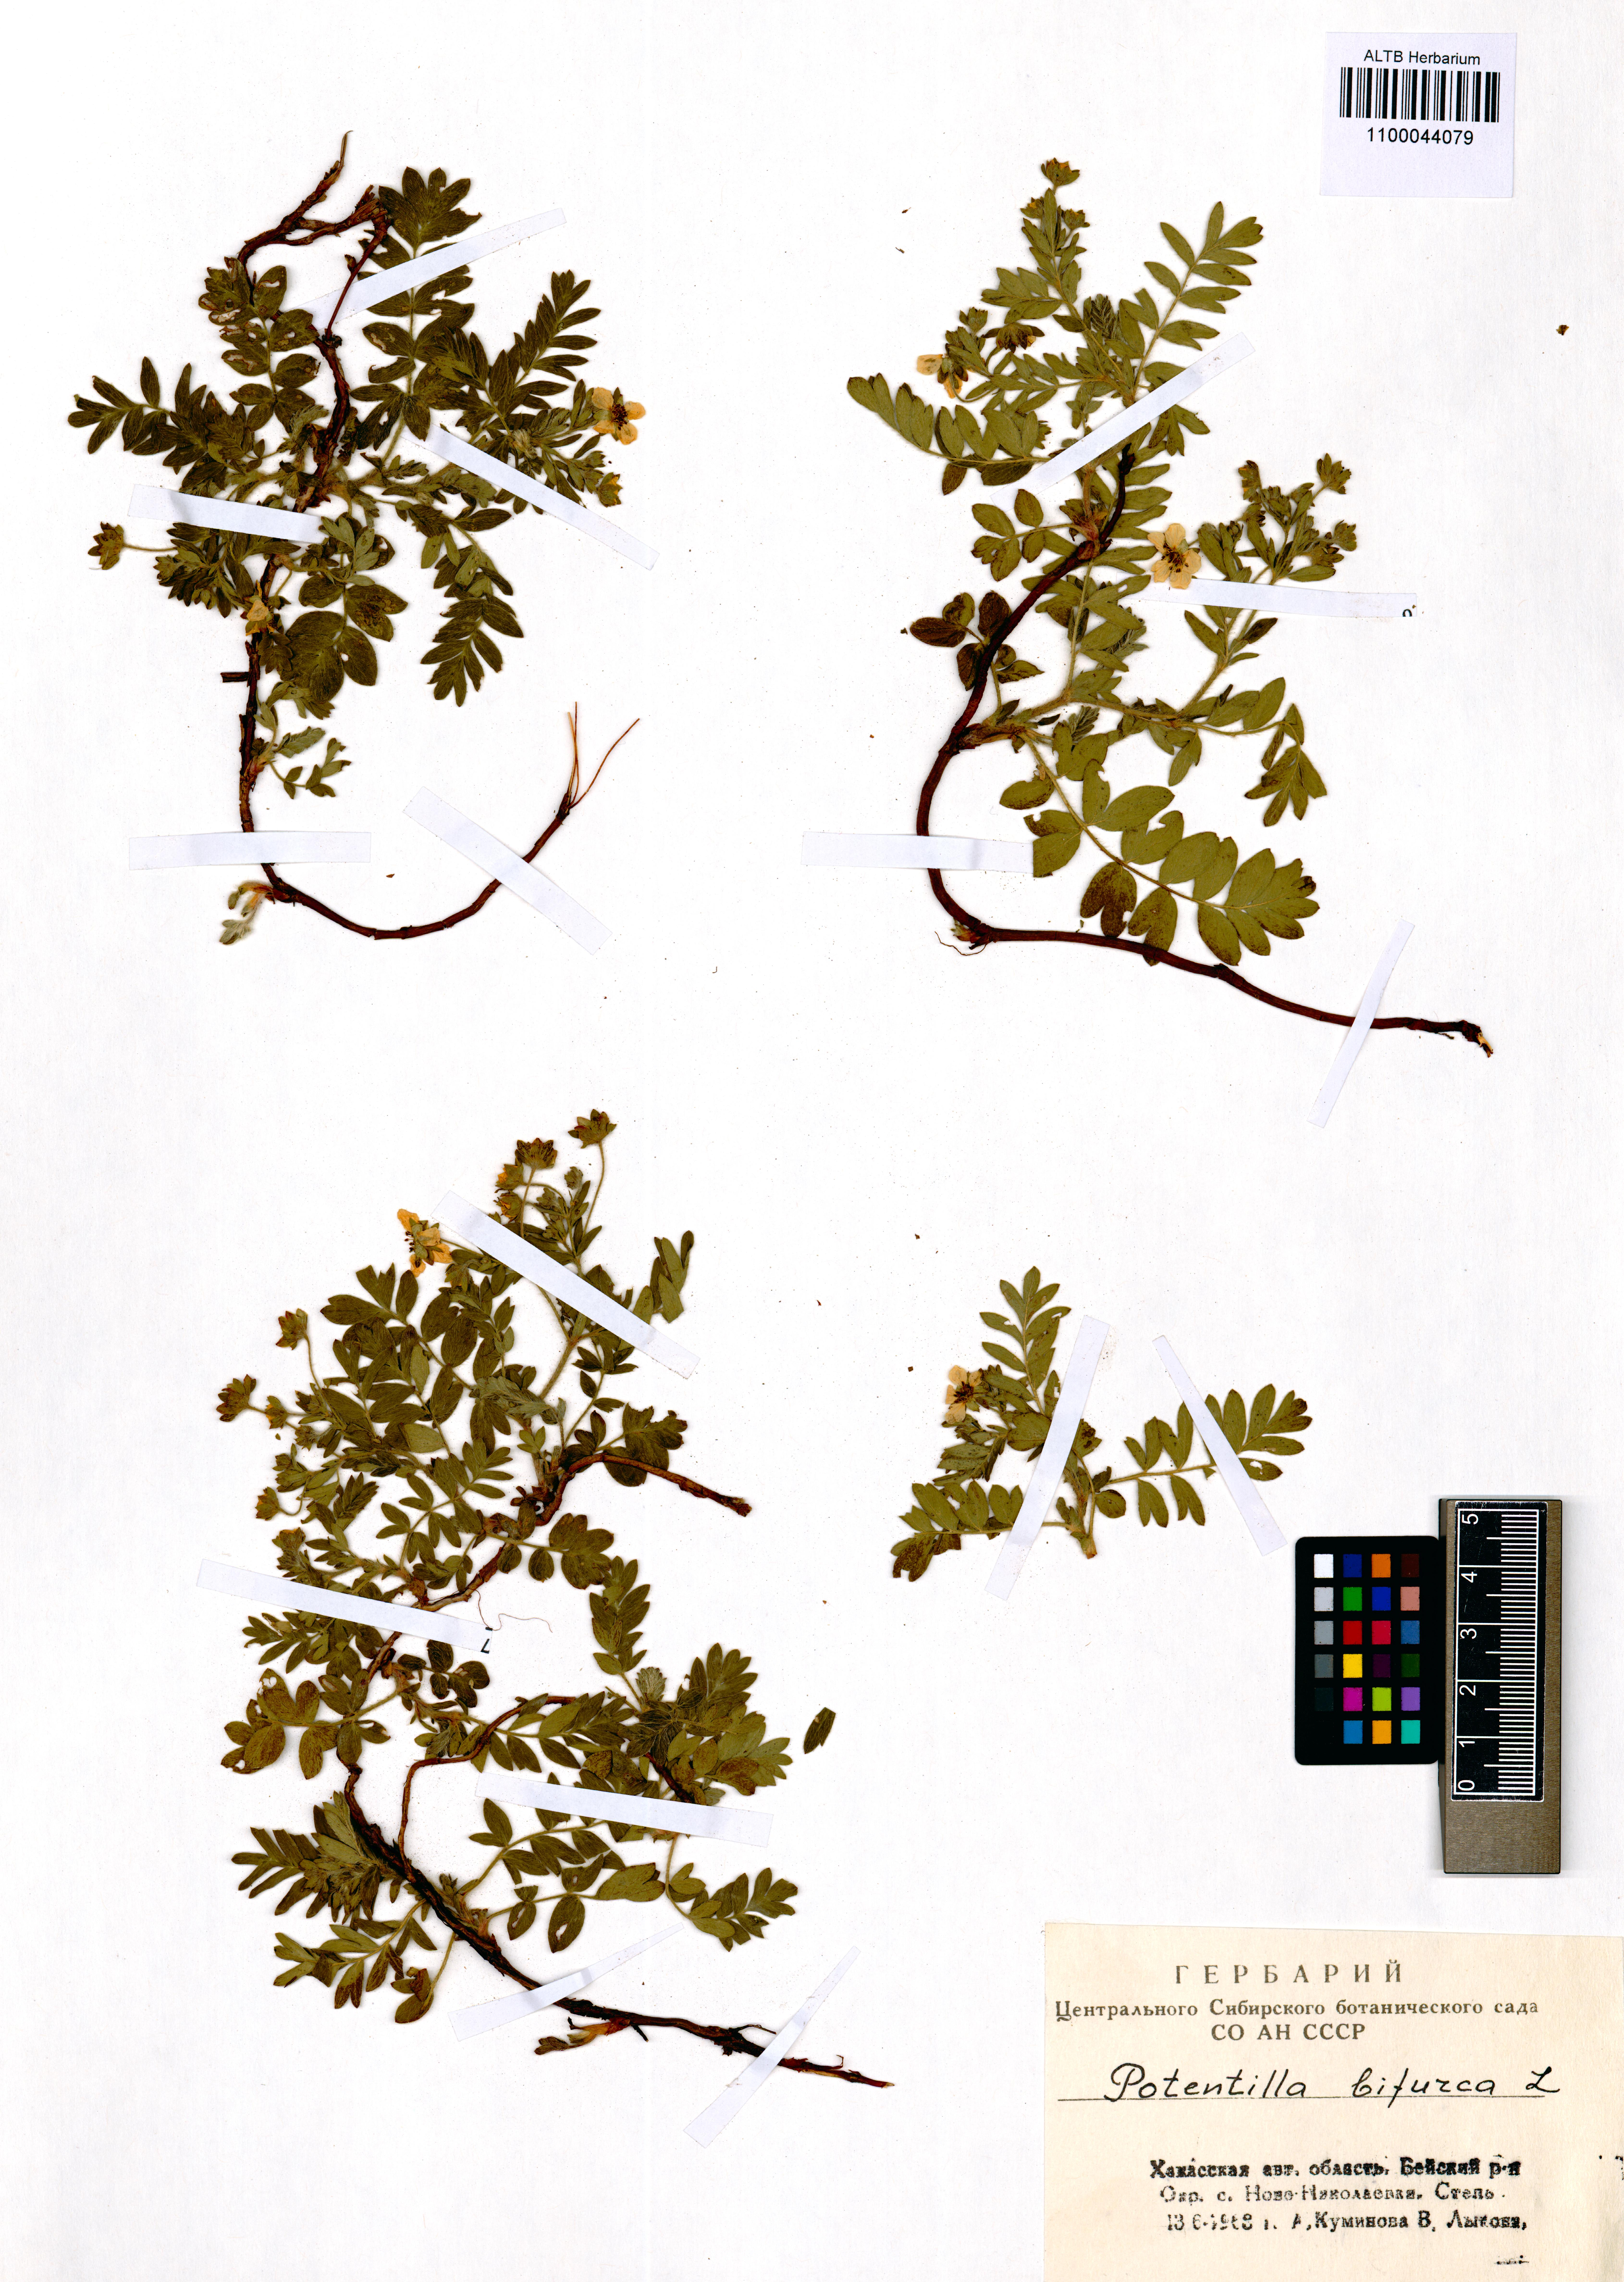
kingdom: Plantae
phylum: Tracheophyta
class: Magnoliopsida
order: Rosales
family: Rosaceae
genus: Sibbaldianthe
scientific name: Sibbaldianthe bifurca
